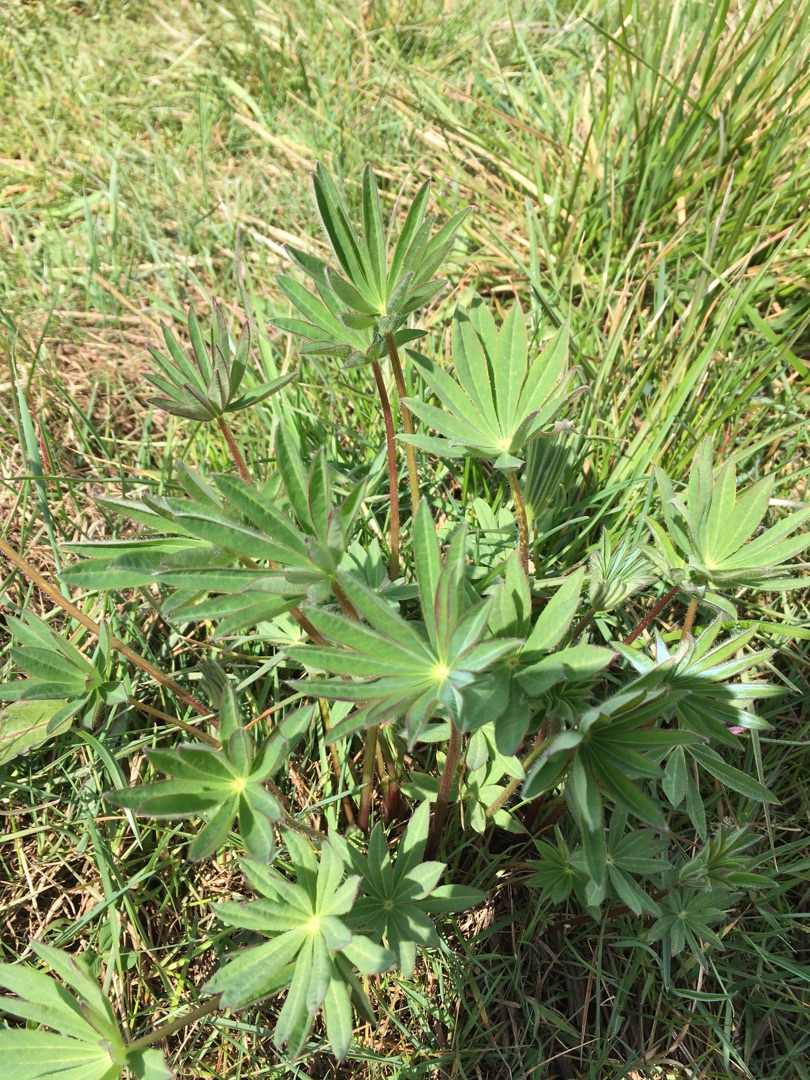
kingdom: Plantae
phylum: Tracheophyta
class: Magnoliopsida
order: Fabales
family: Fabaceae
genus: Lupinus
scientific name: Lupinus polyphyllus
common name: Mangebladet lupin
